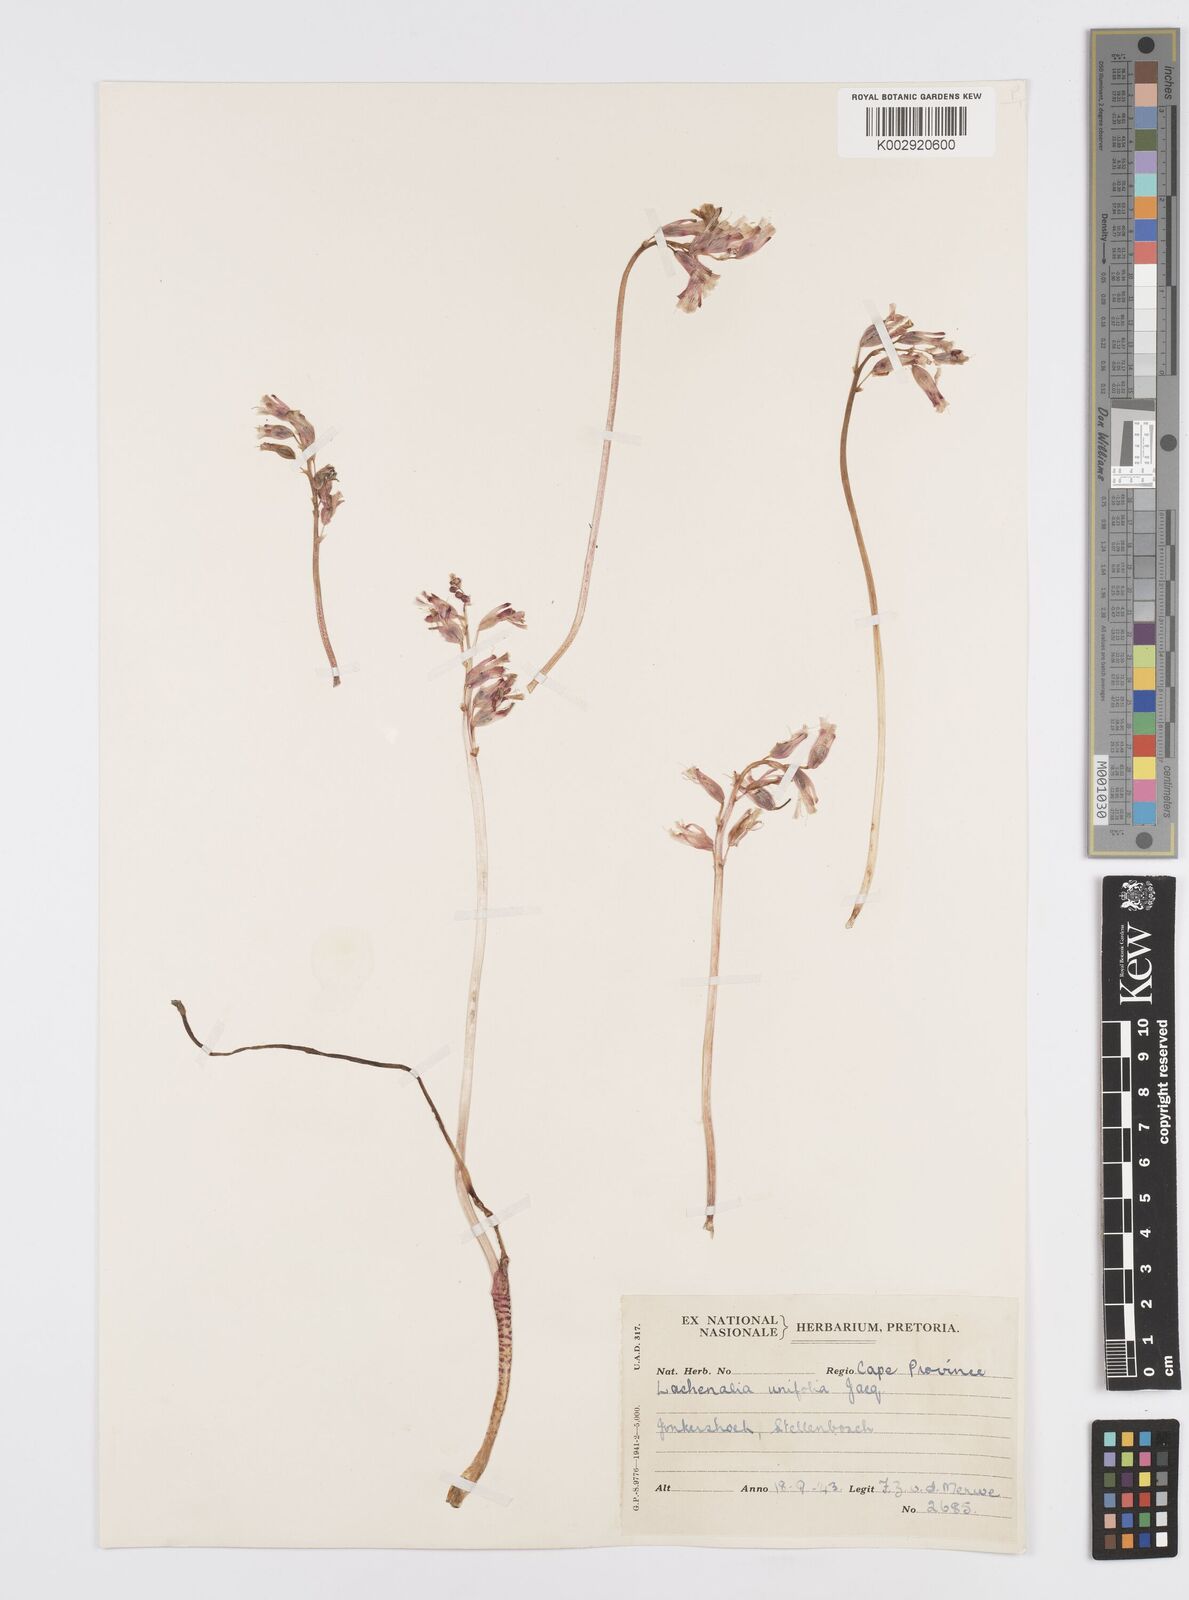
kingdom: Plantae
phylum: Tracheophyta
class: Liliopsida
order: Asparagales
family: Asparagaceae
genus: Lachenalia
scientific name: Lachenalia unifolia
